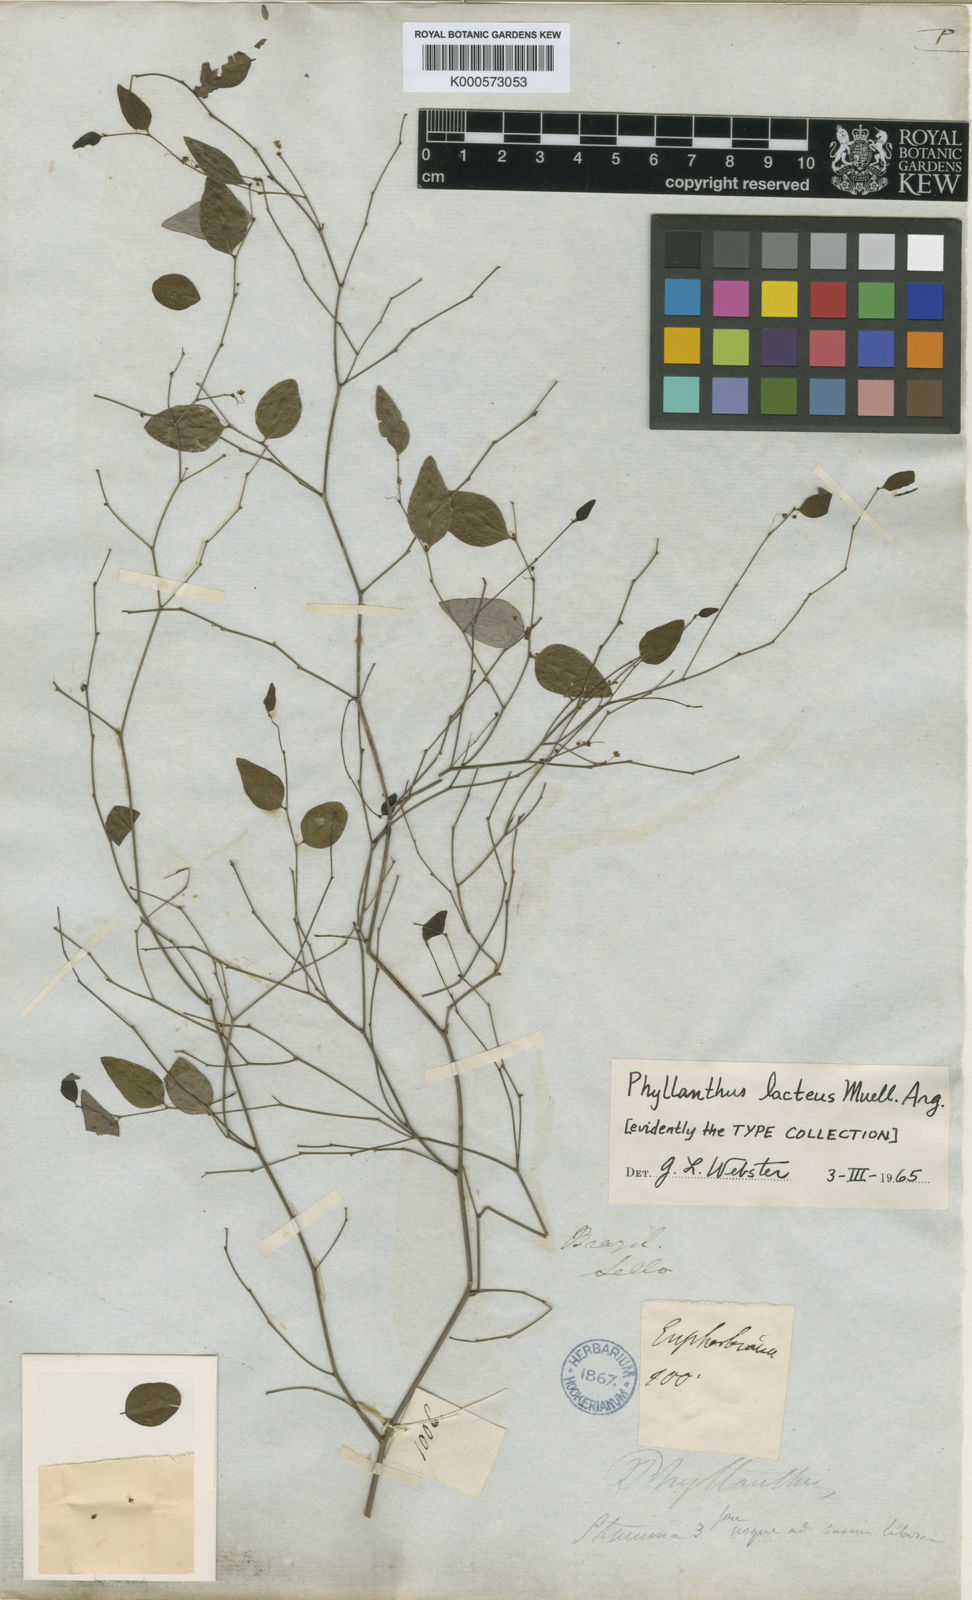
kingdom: Plantae
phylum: Tracheophyta
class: Magnoliopsida
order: Malpighiales
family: Phyllanthaceae
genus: Phyllanthus
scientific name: Phyllanthus
